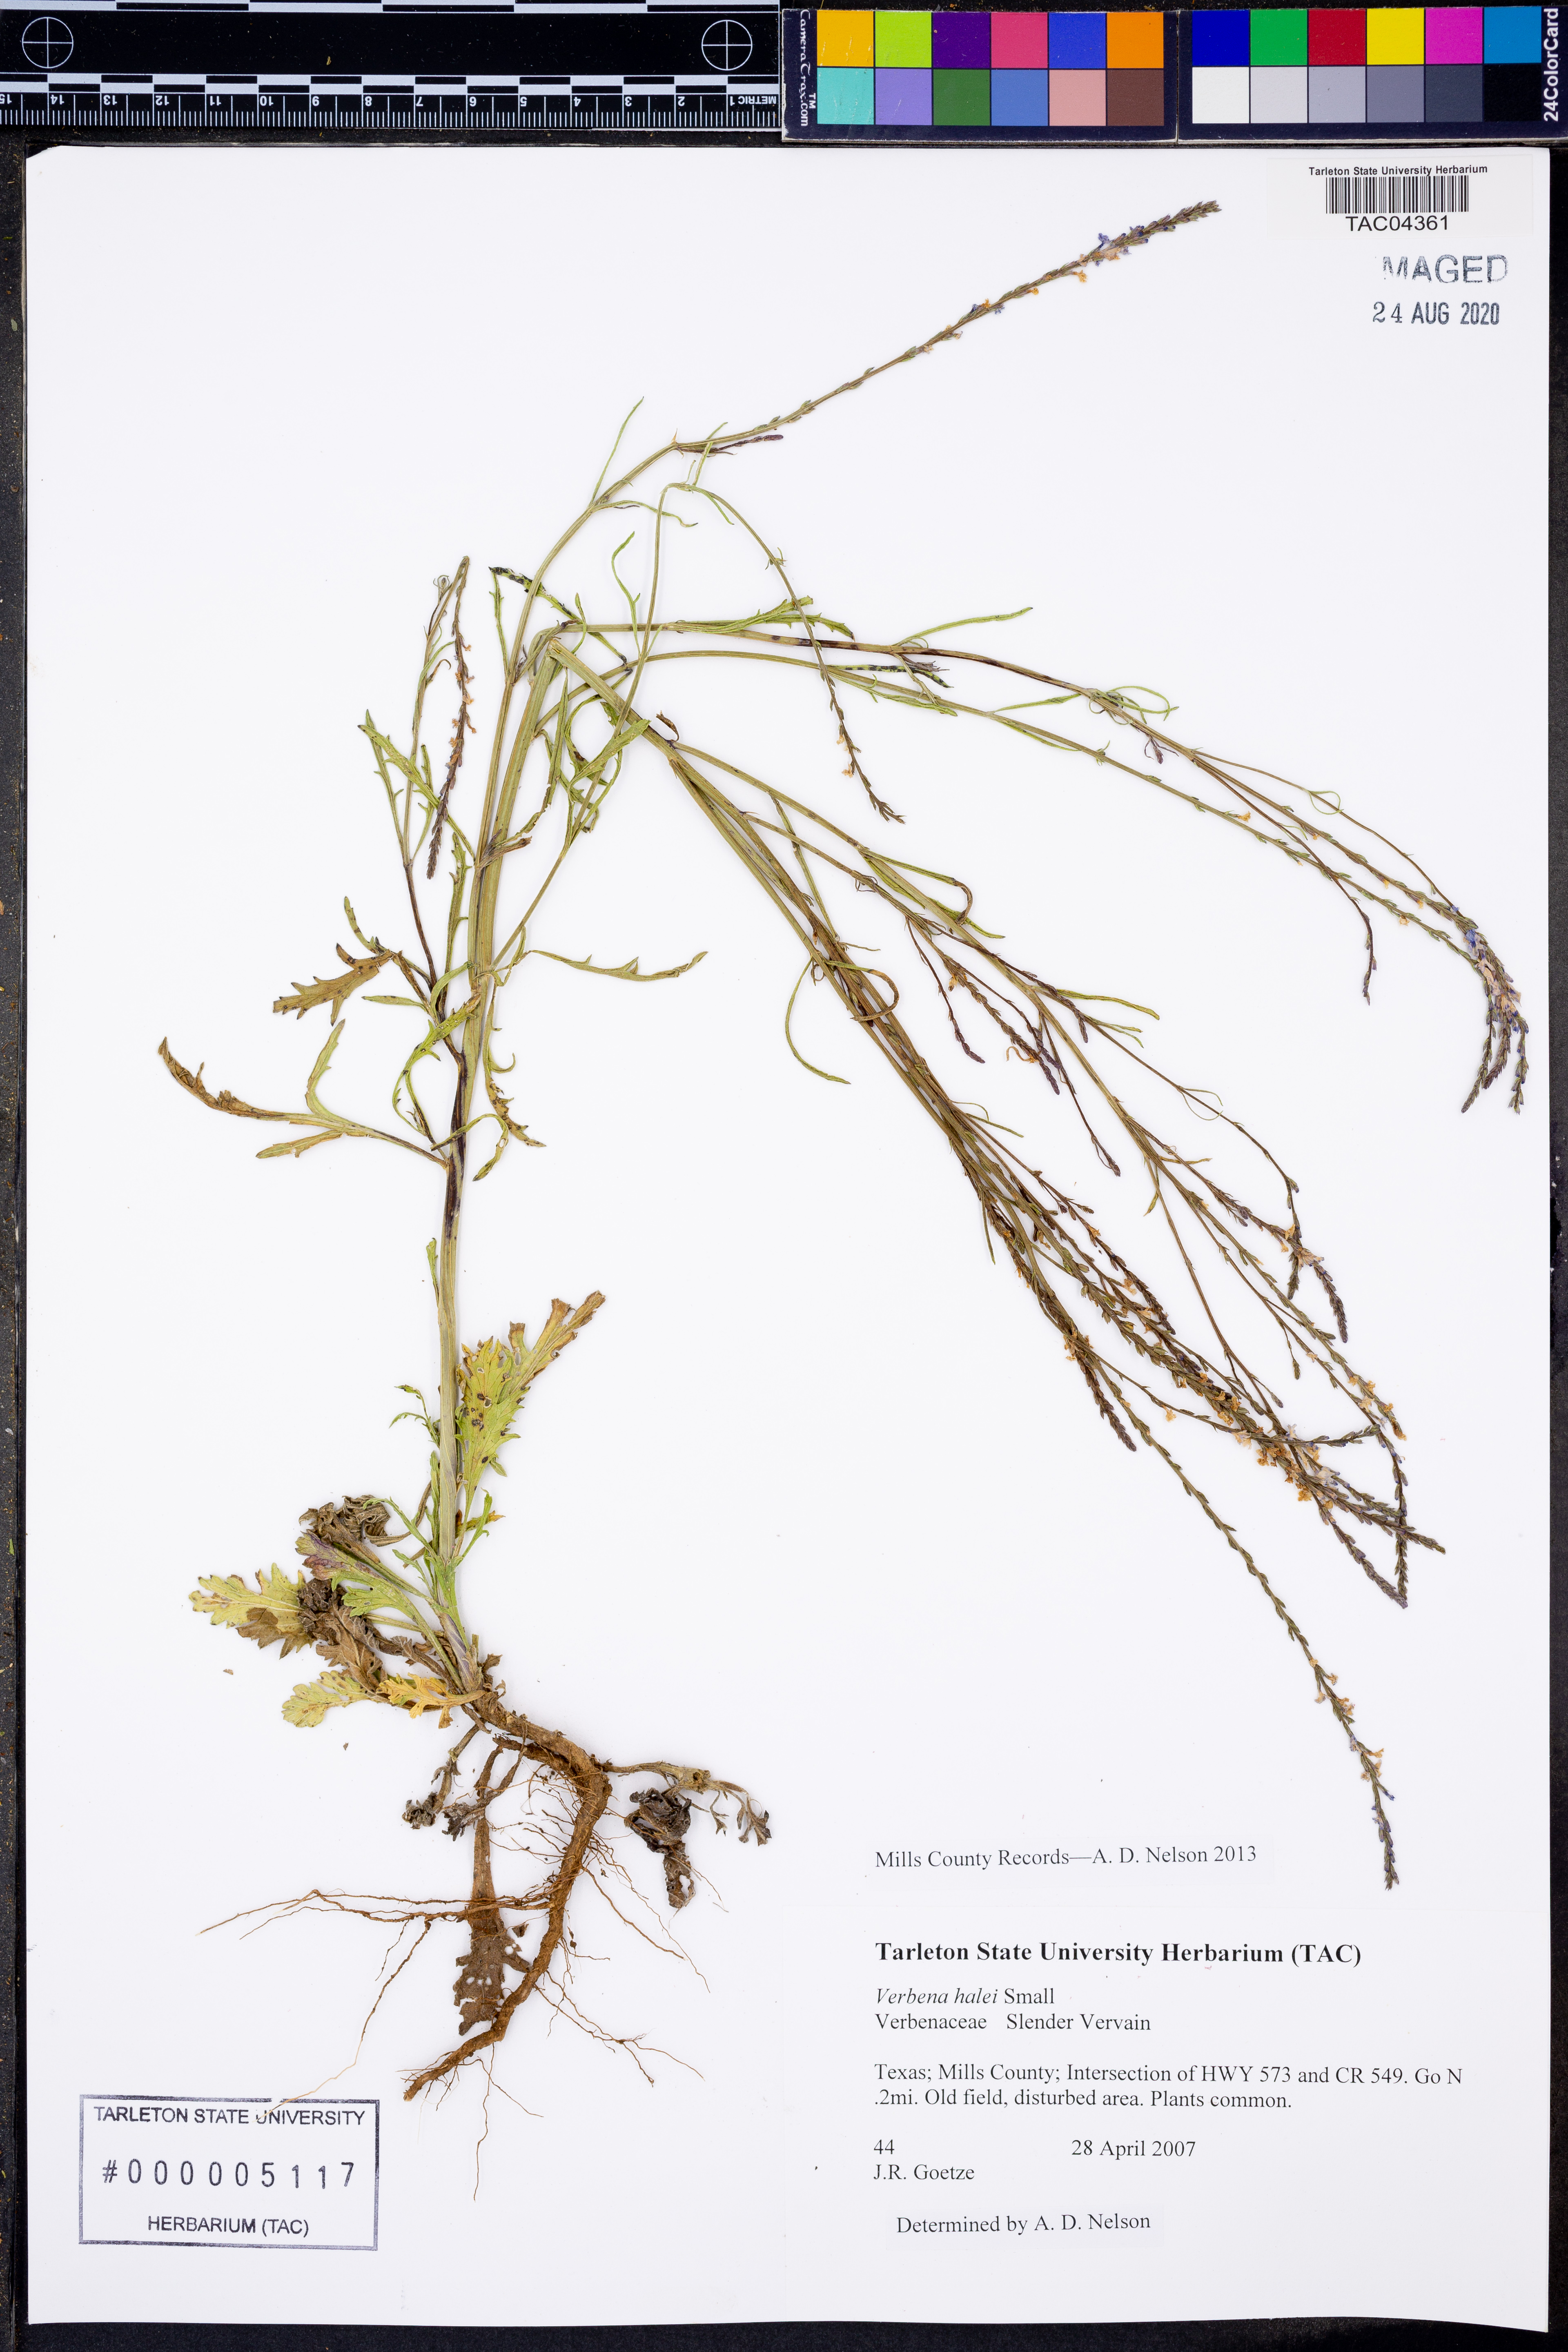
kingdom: Plantae
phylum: Tracheophyta
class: Magnoliopsida
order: Lamiales
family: Verbenaceae
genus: Verbena
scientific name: Verbena halei
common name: Texas vervain
